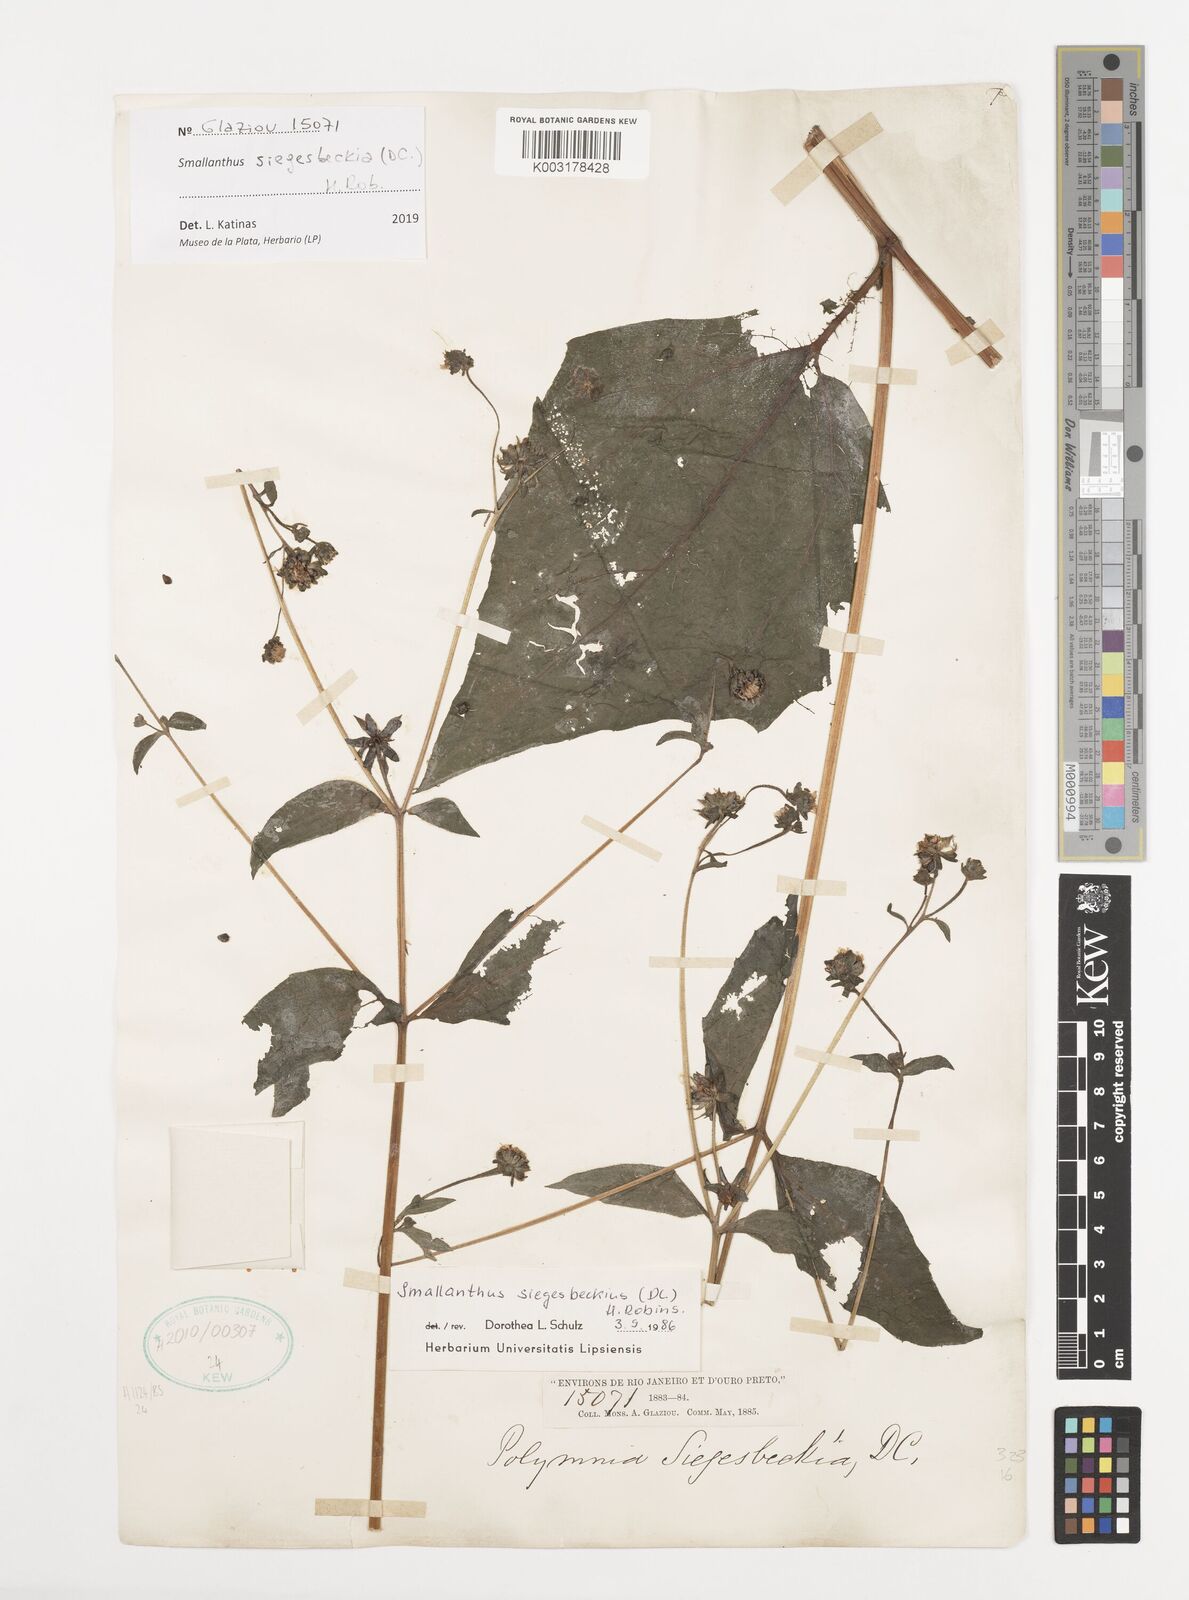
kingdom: Plantae
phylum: Tracheophyta
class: Magnoliopsida
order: Asterales
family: Asteraceae
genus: Smallanthus
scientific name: Smallanthus siegesbeckius
